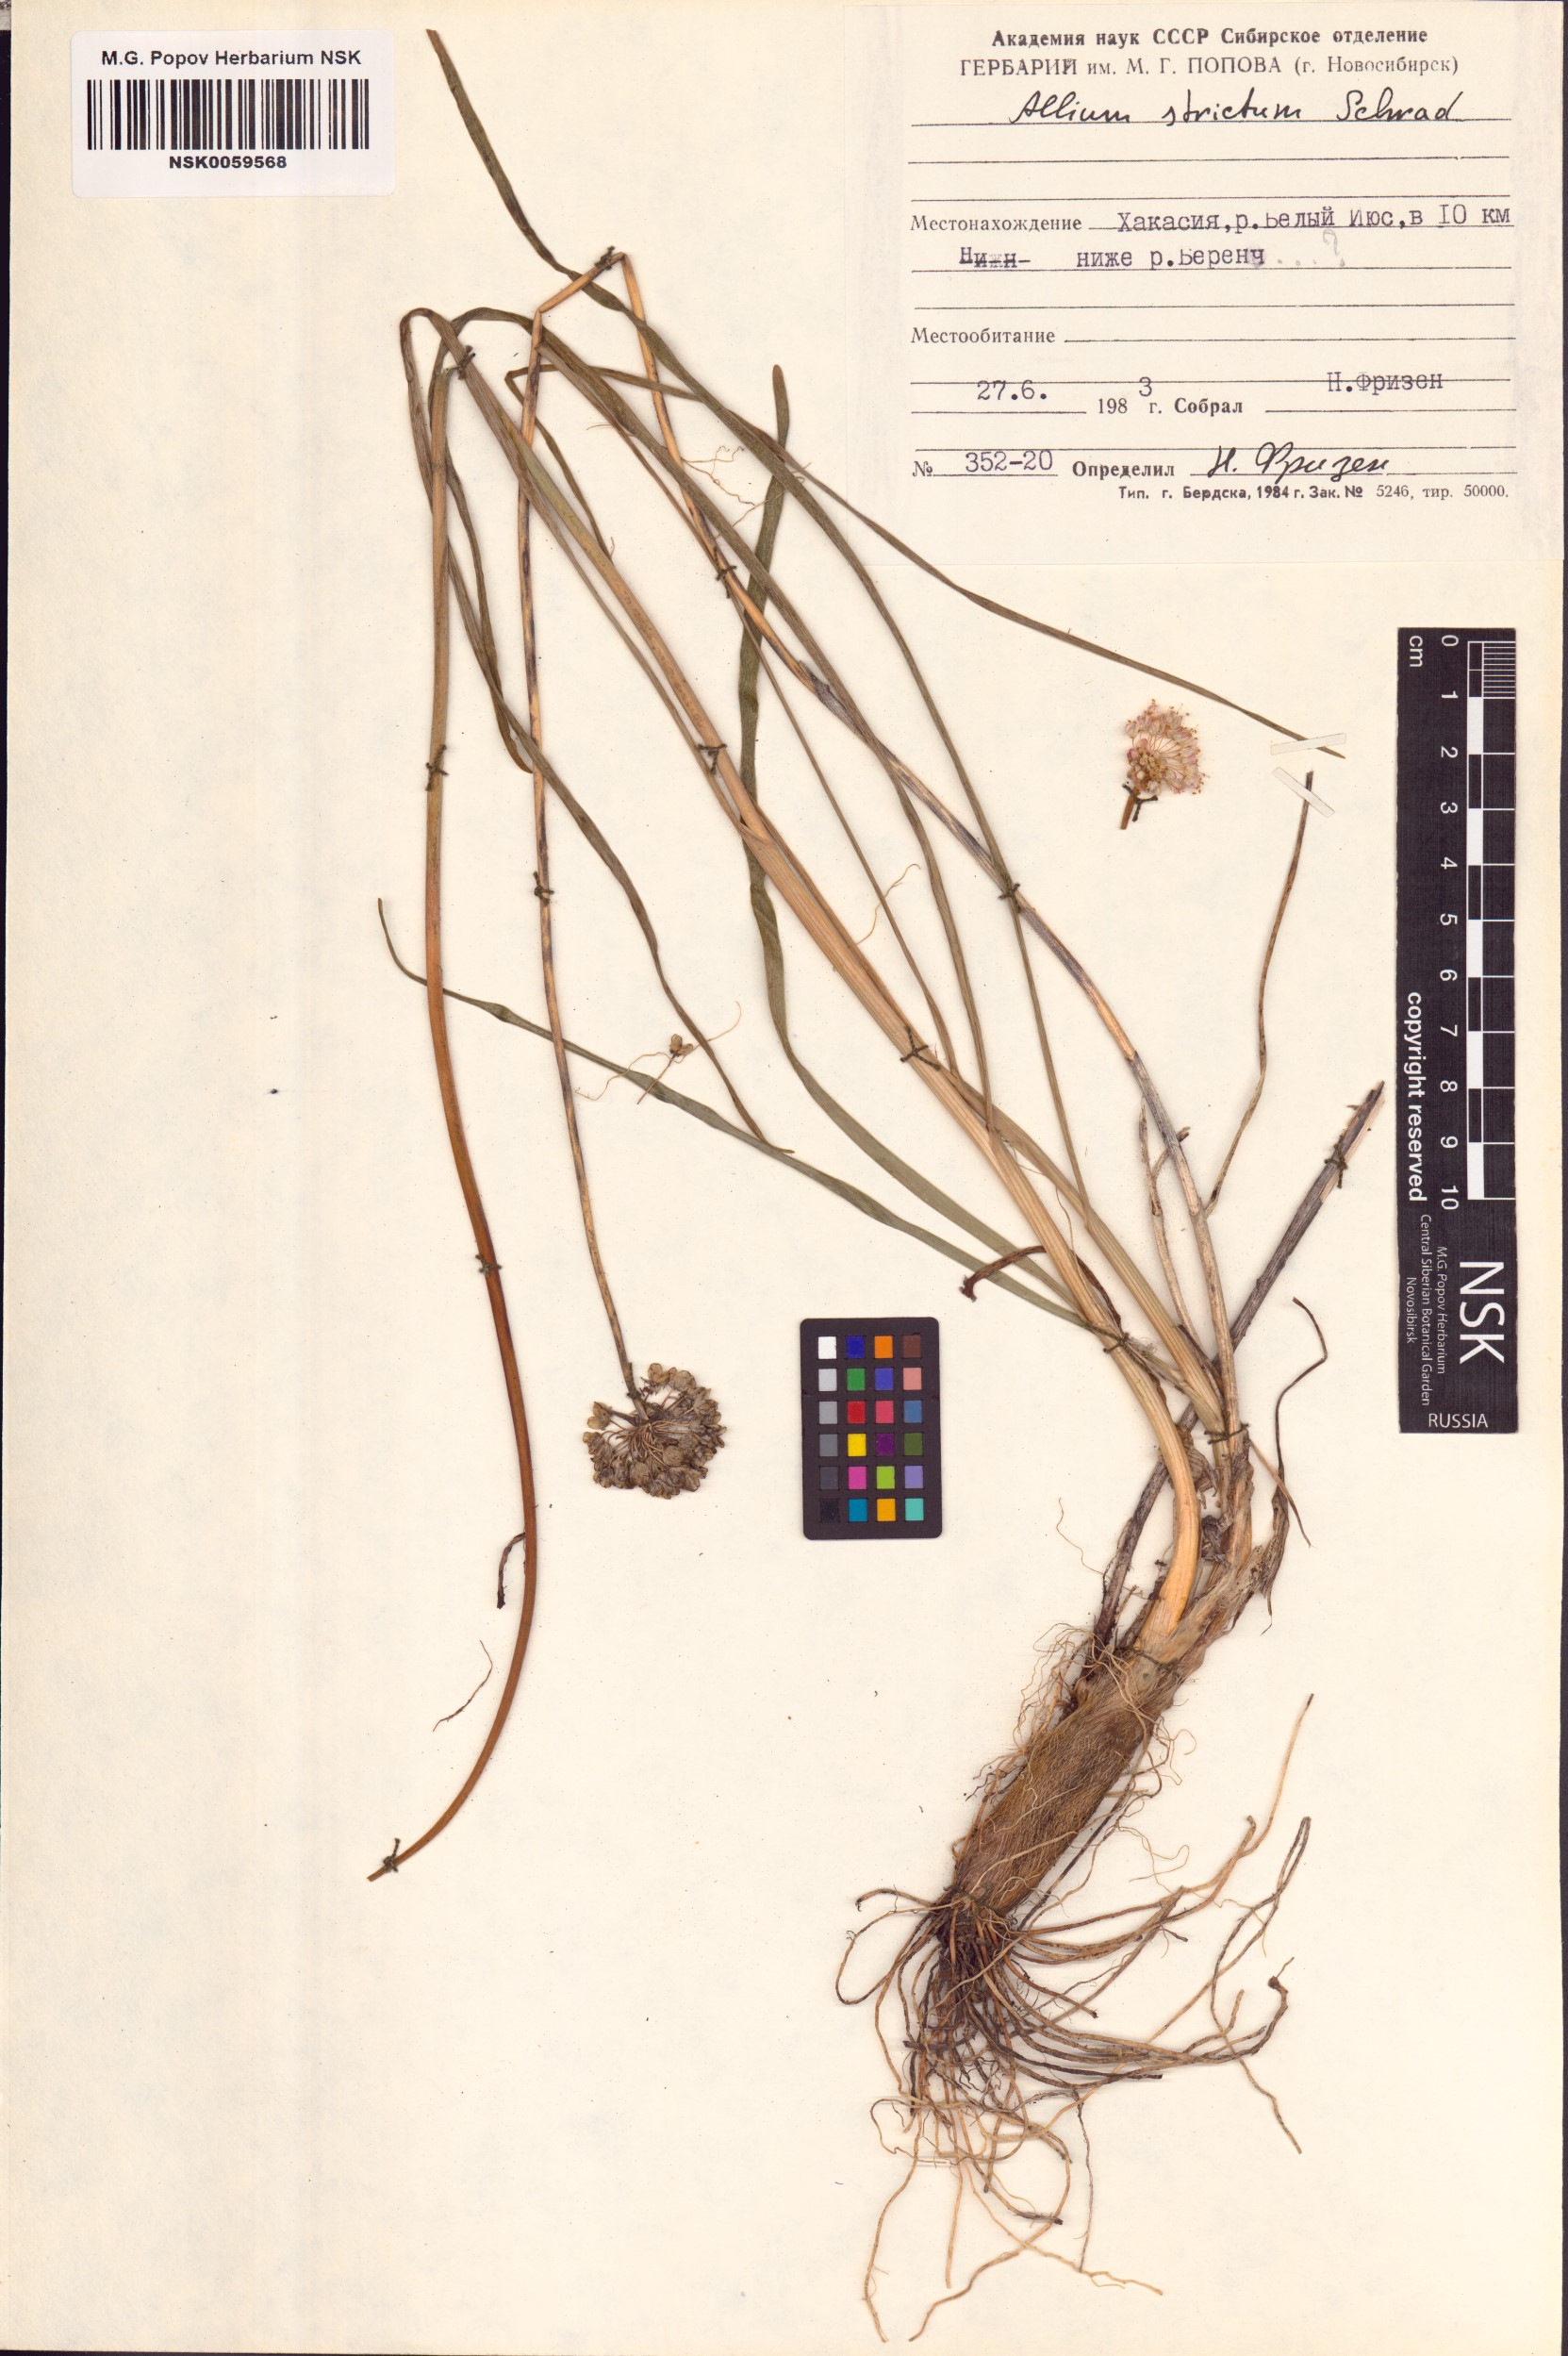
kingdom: Plantae
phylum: Tracheophyta
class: Liliopsida
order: Asparagales
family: Amaryllidaceae
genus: Allium
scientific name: Allium strictum
